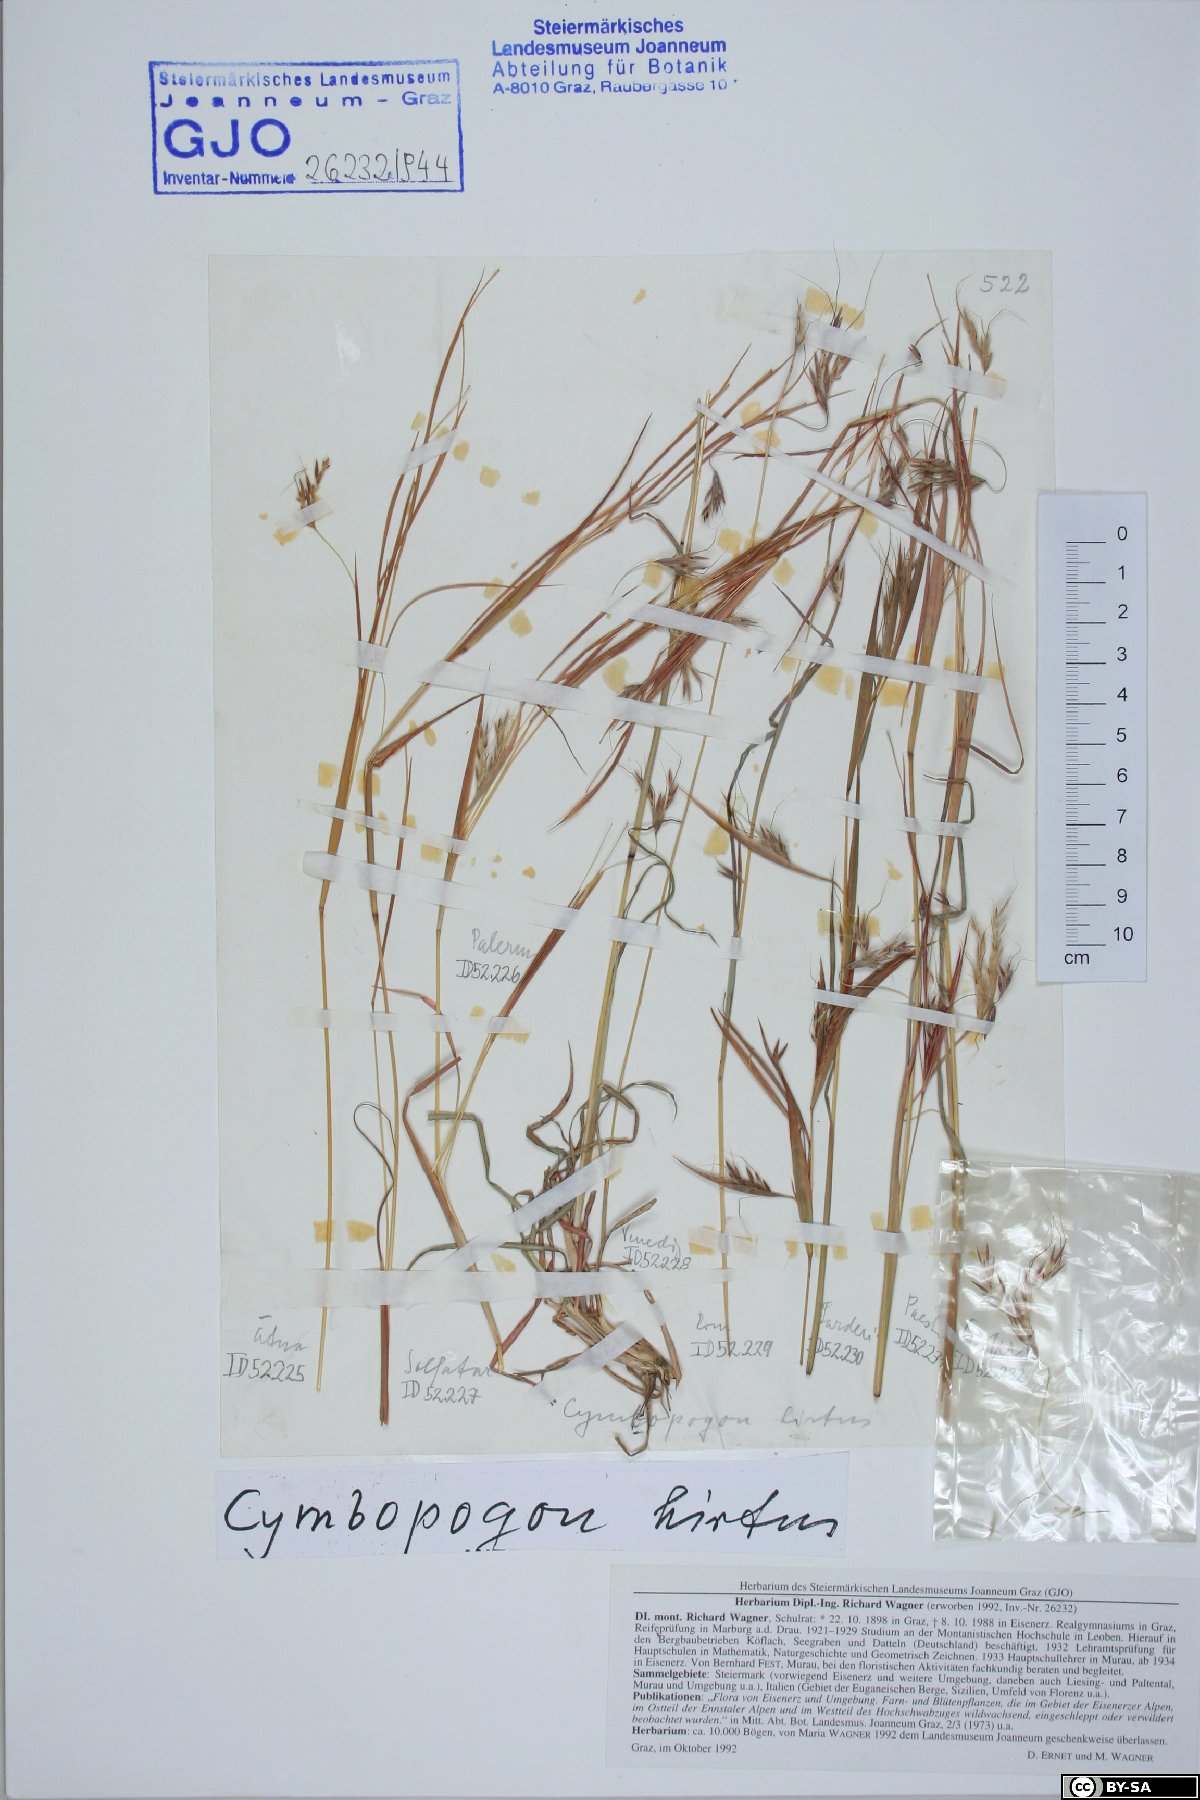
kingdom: Plantae
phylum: Tracheophyta
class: Liliopsida
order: Poales
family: Poaceae
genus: Hyparrhenia
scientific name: Hyparrhenia hirta
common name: Thatching grass
